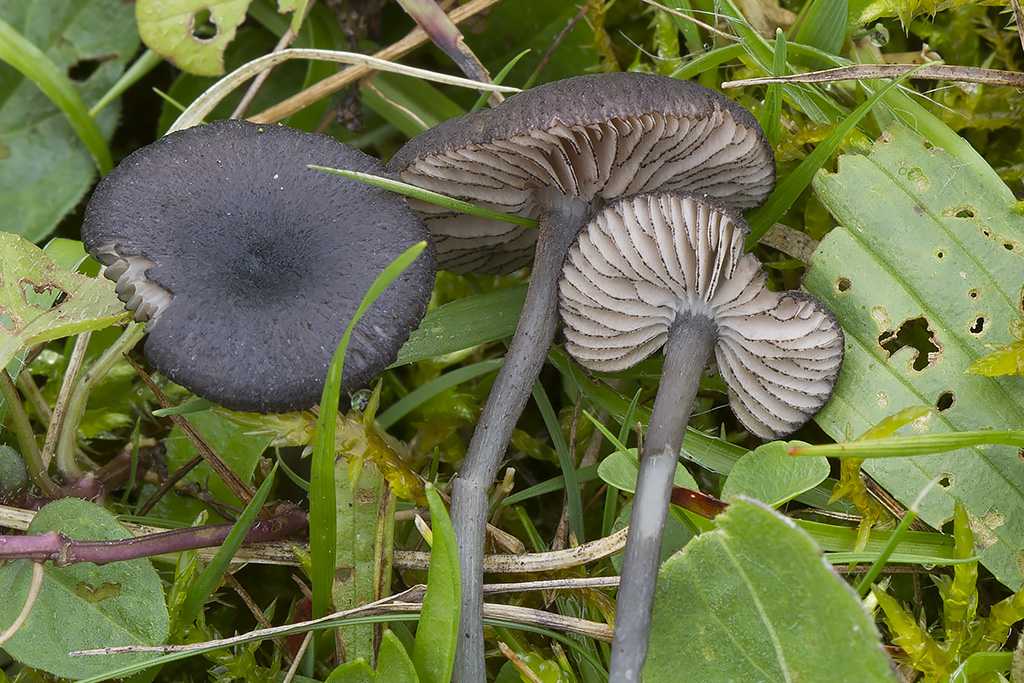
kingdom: Fungi
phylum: Basidiomycota
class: Agaricomycetes
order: Agaricales
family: Entolomataceae
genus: Entoloma
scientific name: Entoloma
